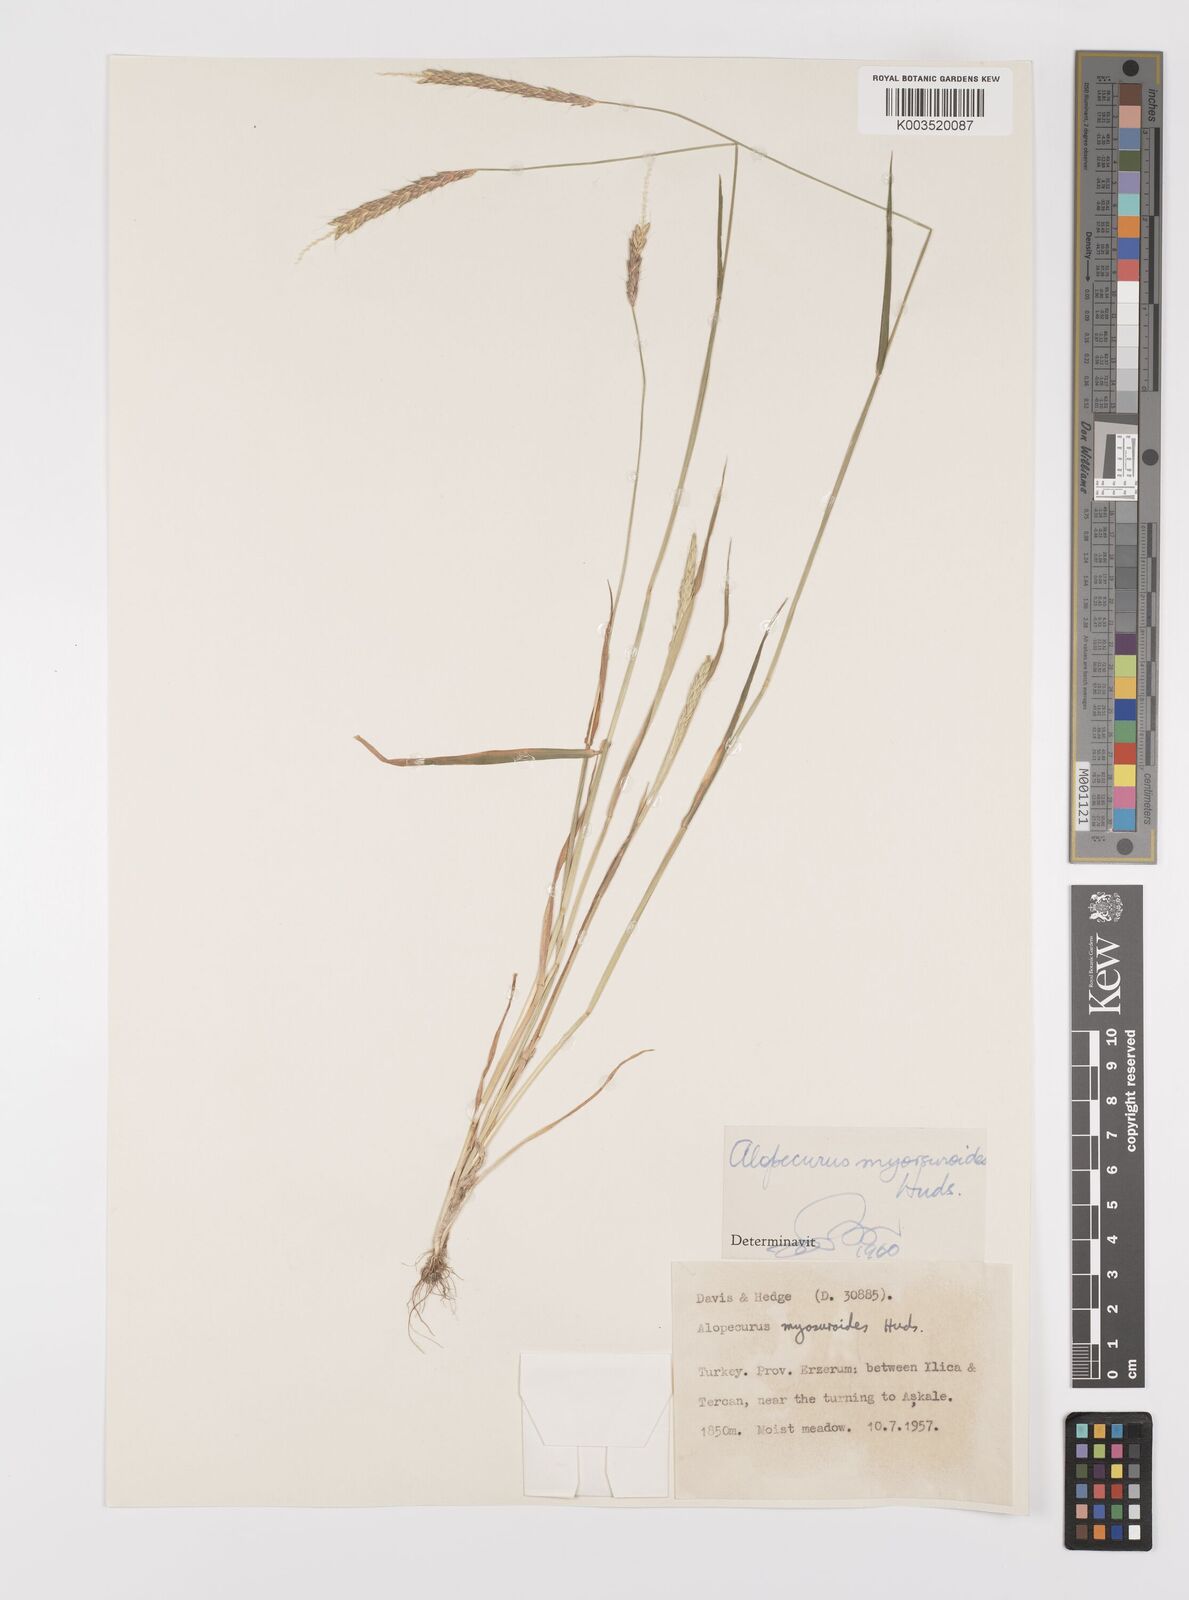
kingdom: Plantae
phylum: Tracheophyta
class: Liliopsida
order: Poales
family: Poaceae
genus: Alopecurus
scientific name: Alopecurus myosuroides
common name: Black-grass
